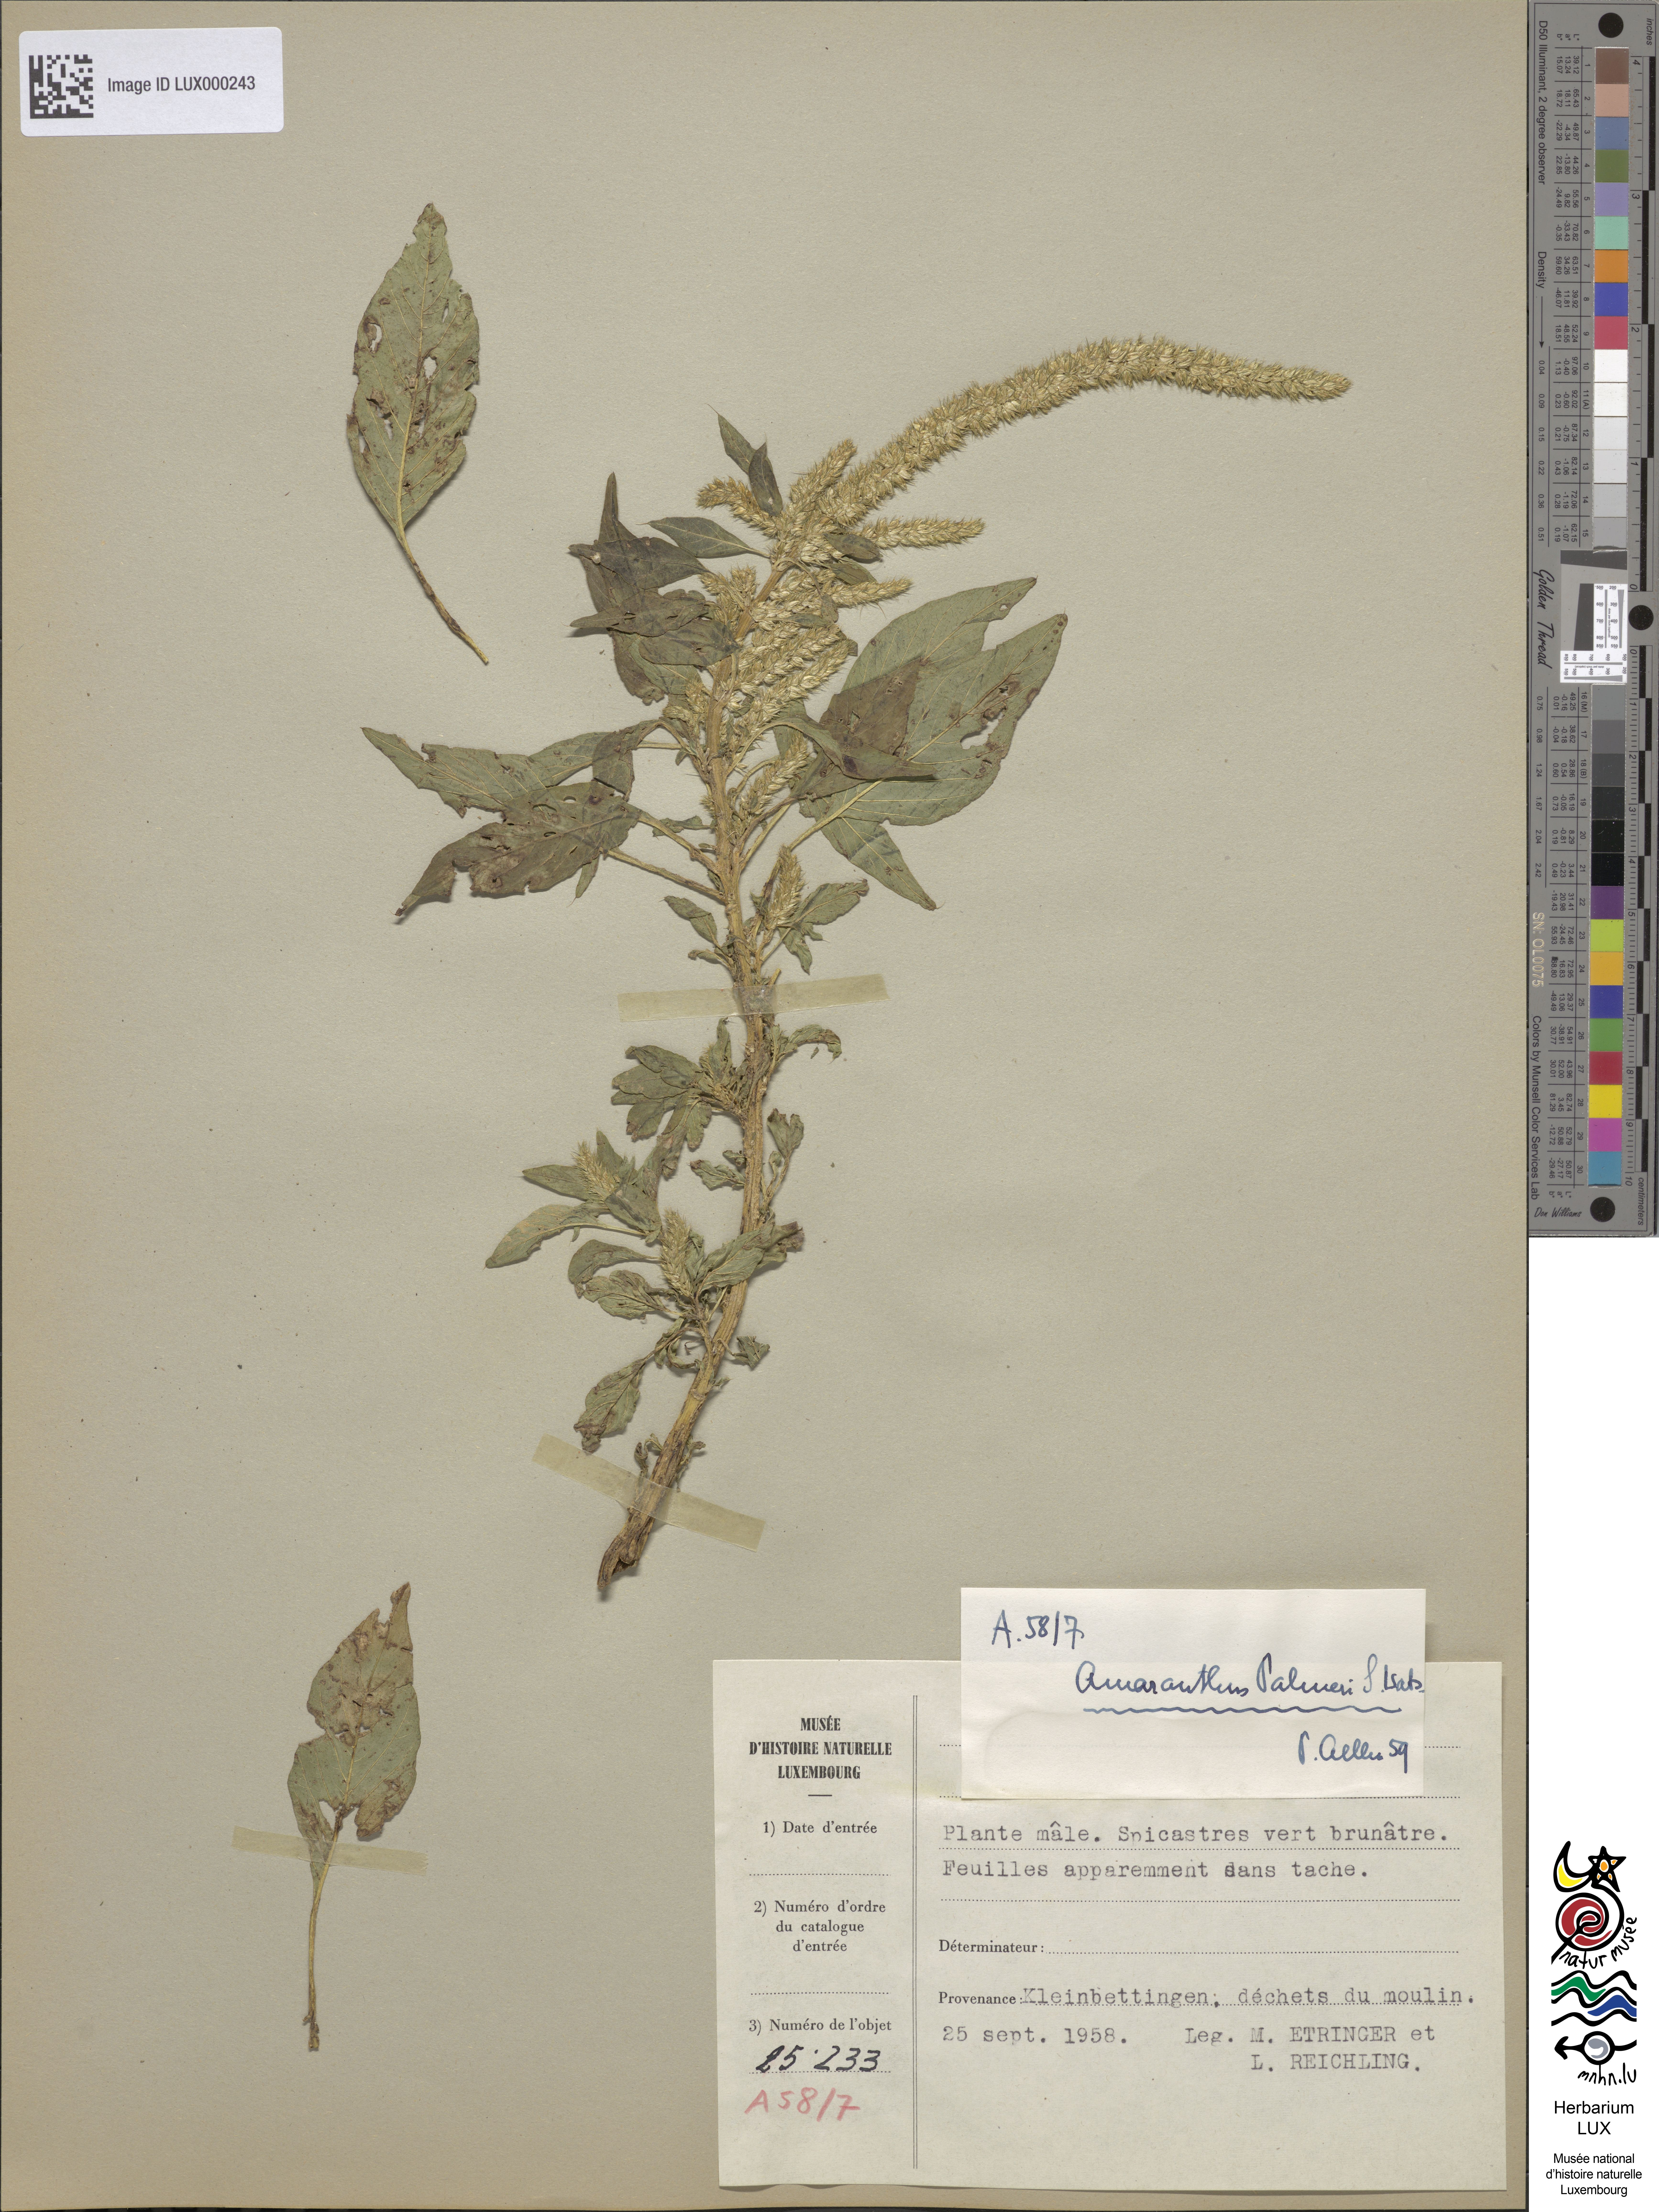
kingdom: Plantae
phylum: Tracheophyta
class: Magnoliopsida
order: Caryophyllales
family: Amaranthaceae
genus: Amaranthus
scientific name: Amaranthus palmeri
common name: Dioecious amaranth
